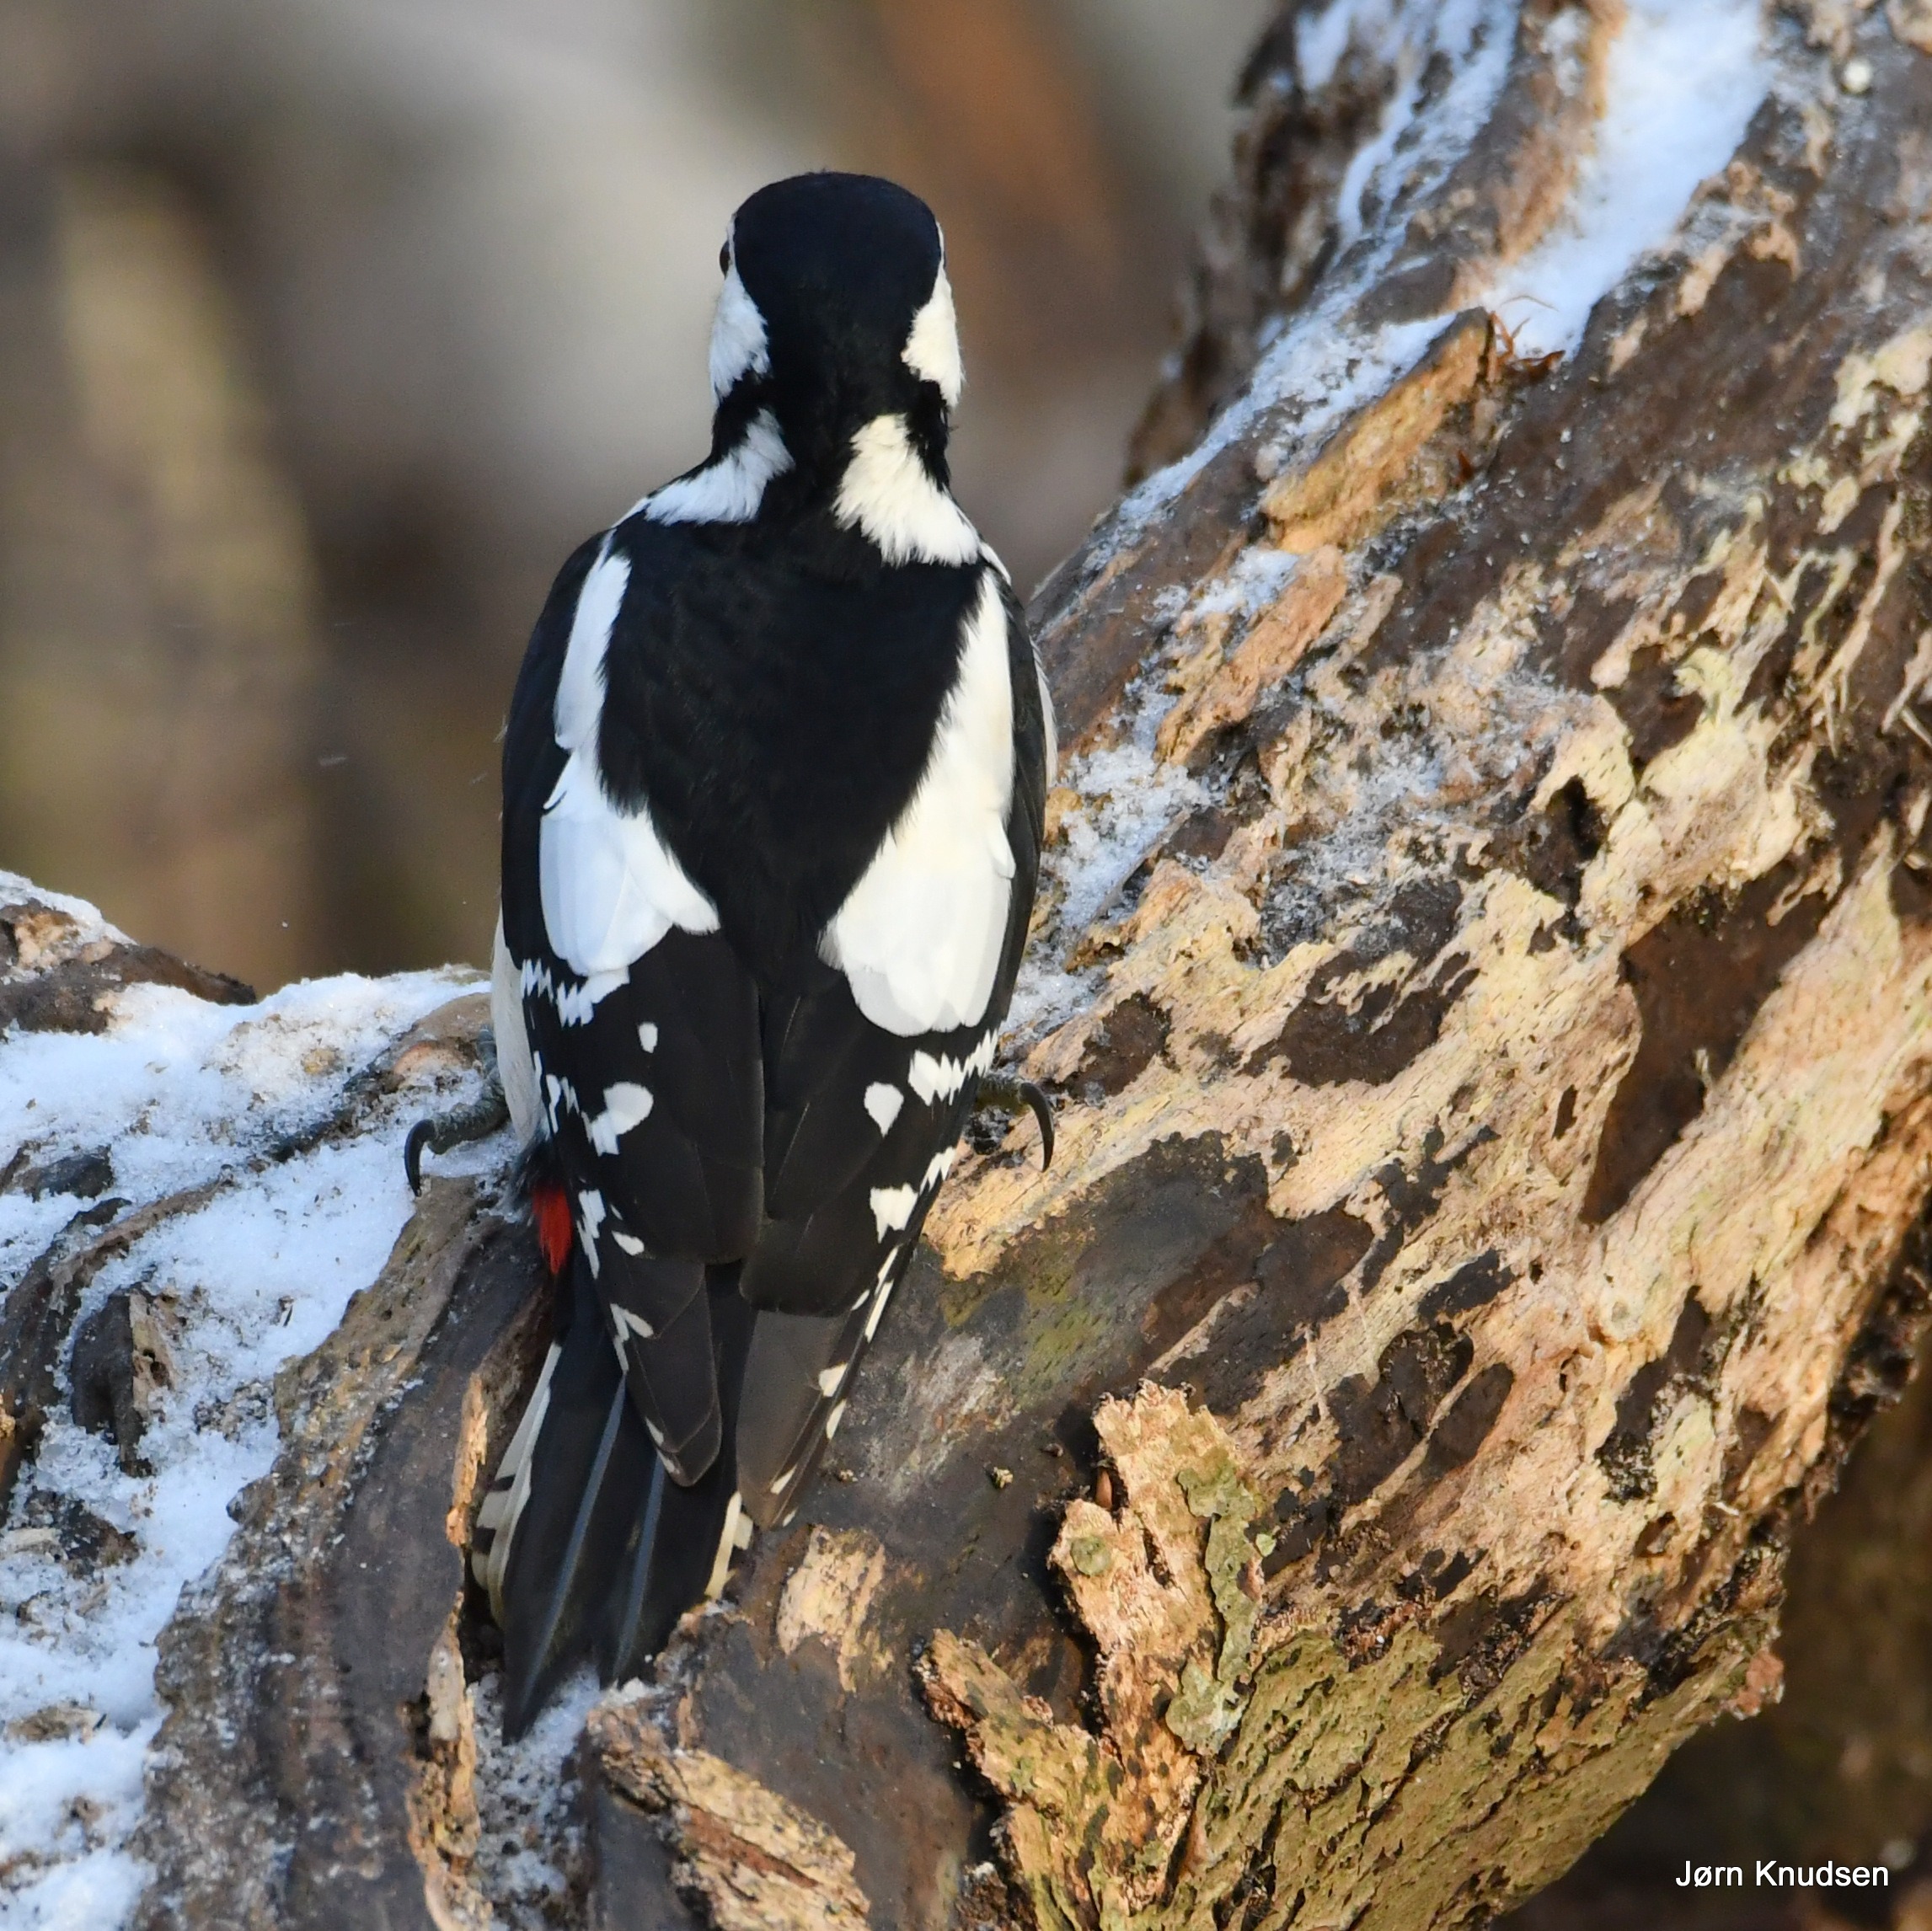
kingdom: Animalia
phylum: Chordata
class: Aves
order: Piciformes
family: Picidae
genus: Dendrocopos
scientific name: Dendrocopos major
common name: Stor flagspætte
